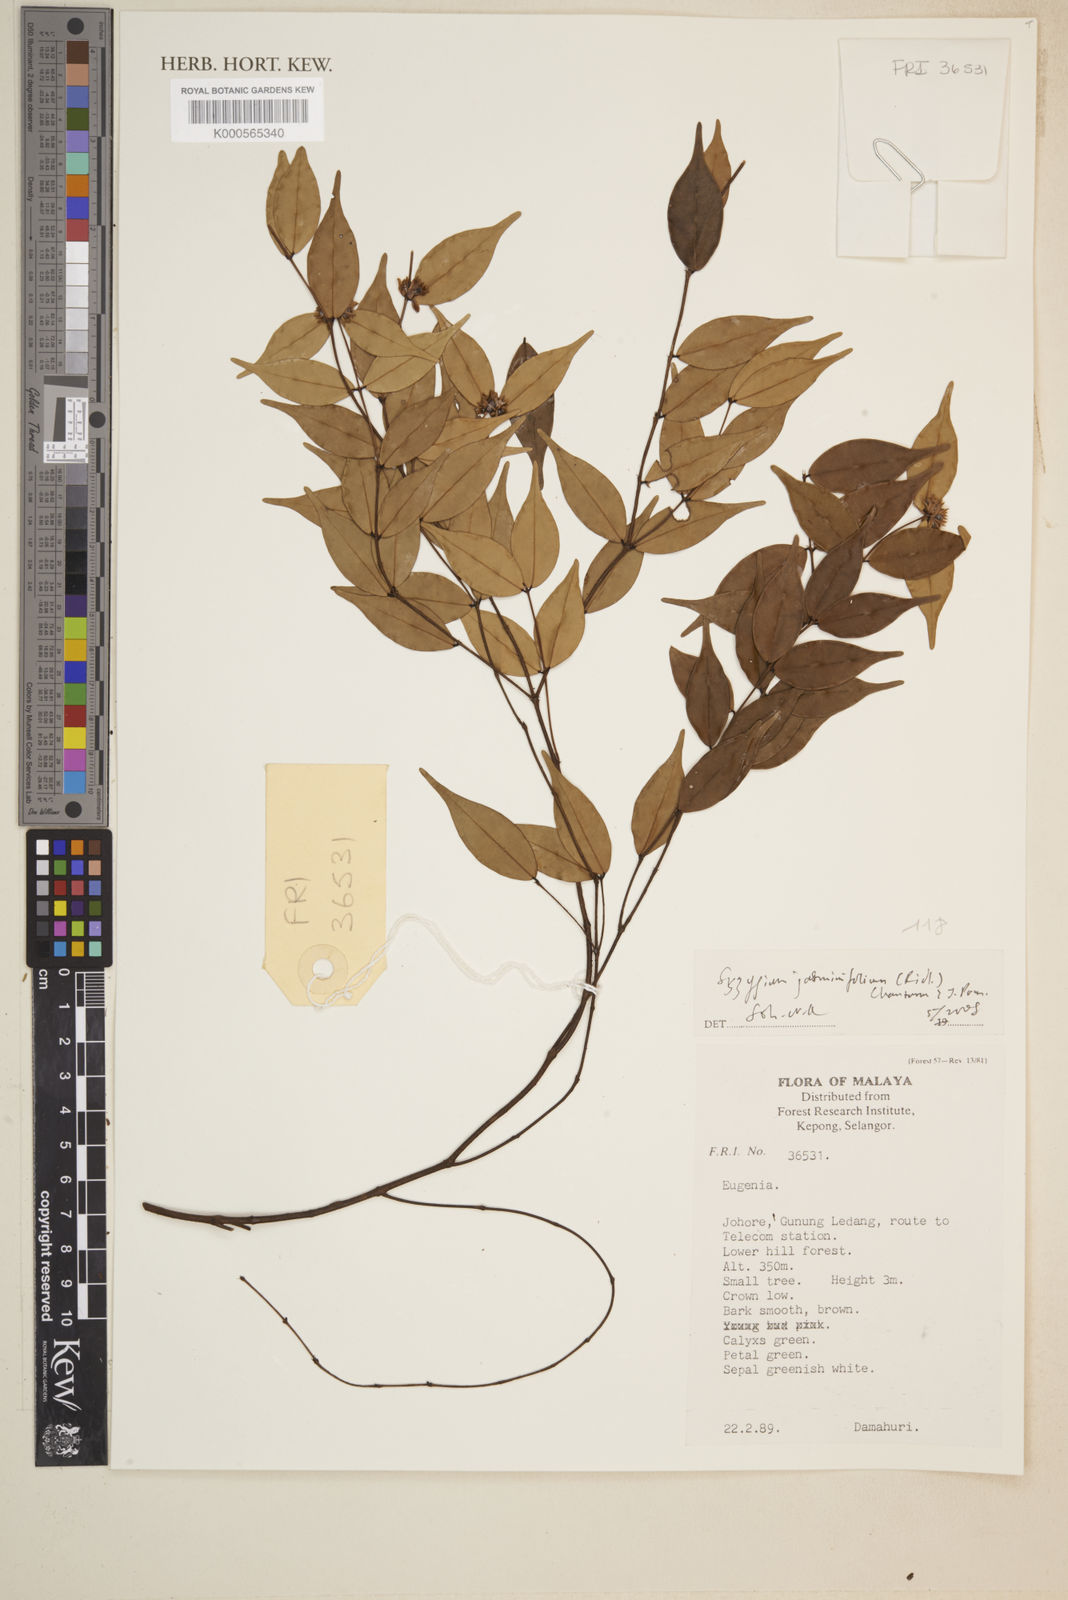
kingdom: Plantae
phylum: Tracheophyta
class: Magnoliopsida
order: Myrtales
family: Myrtaceae
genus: Syzygium
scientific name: Syzygium jasminifolium
